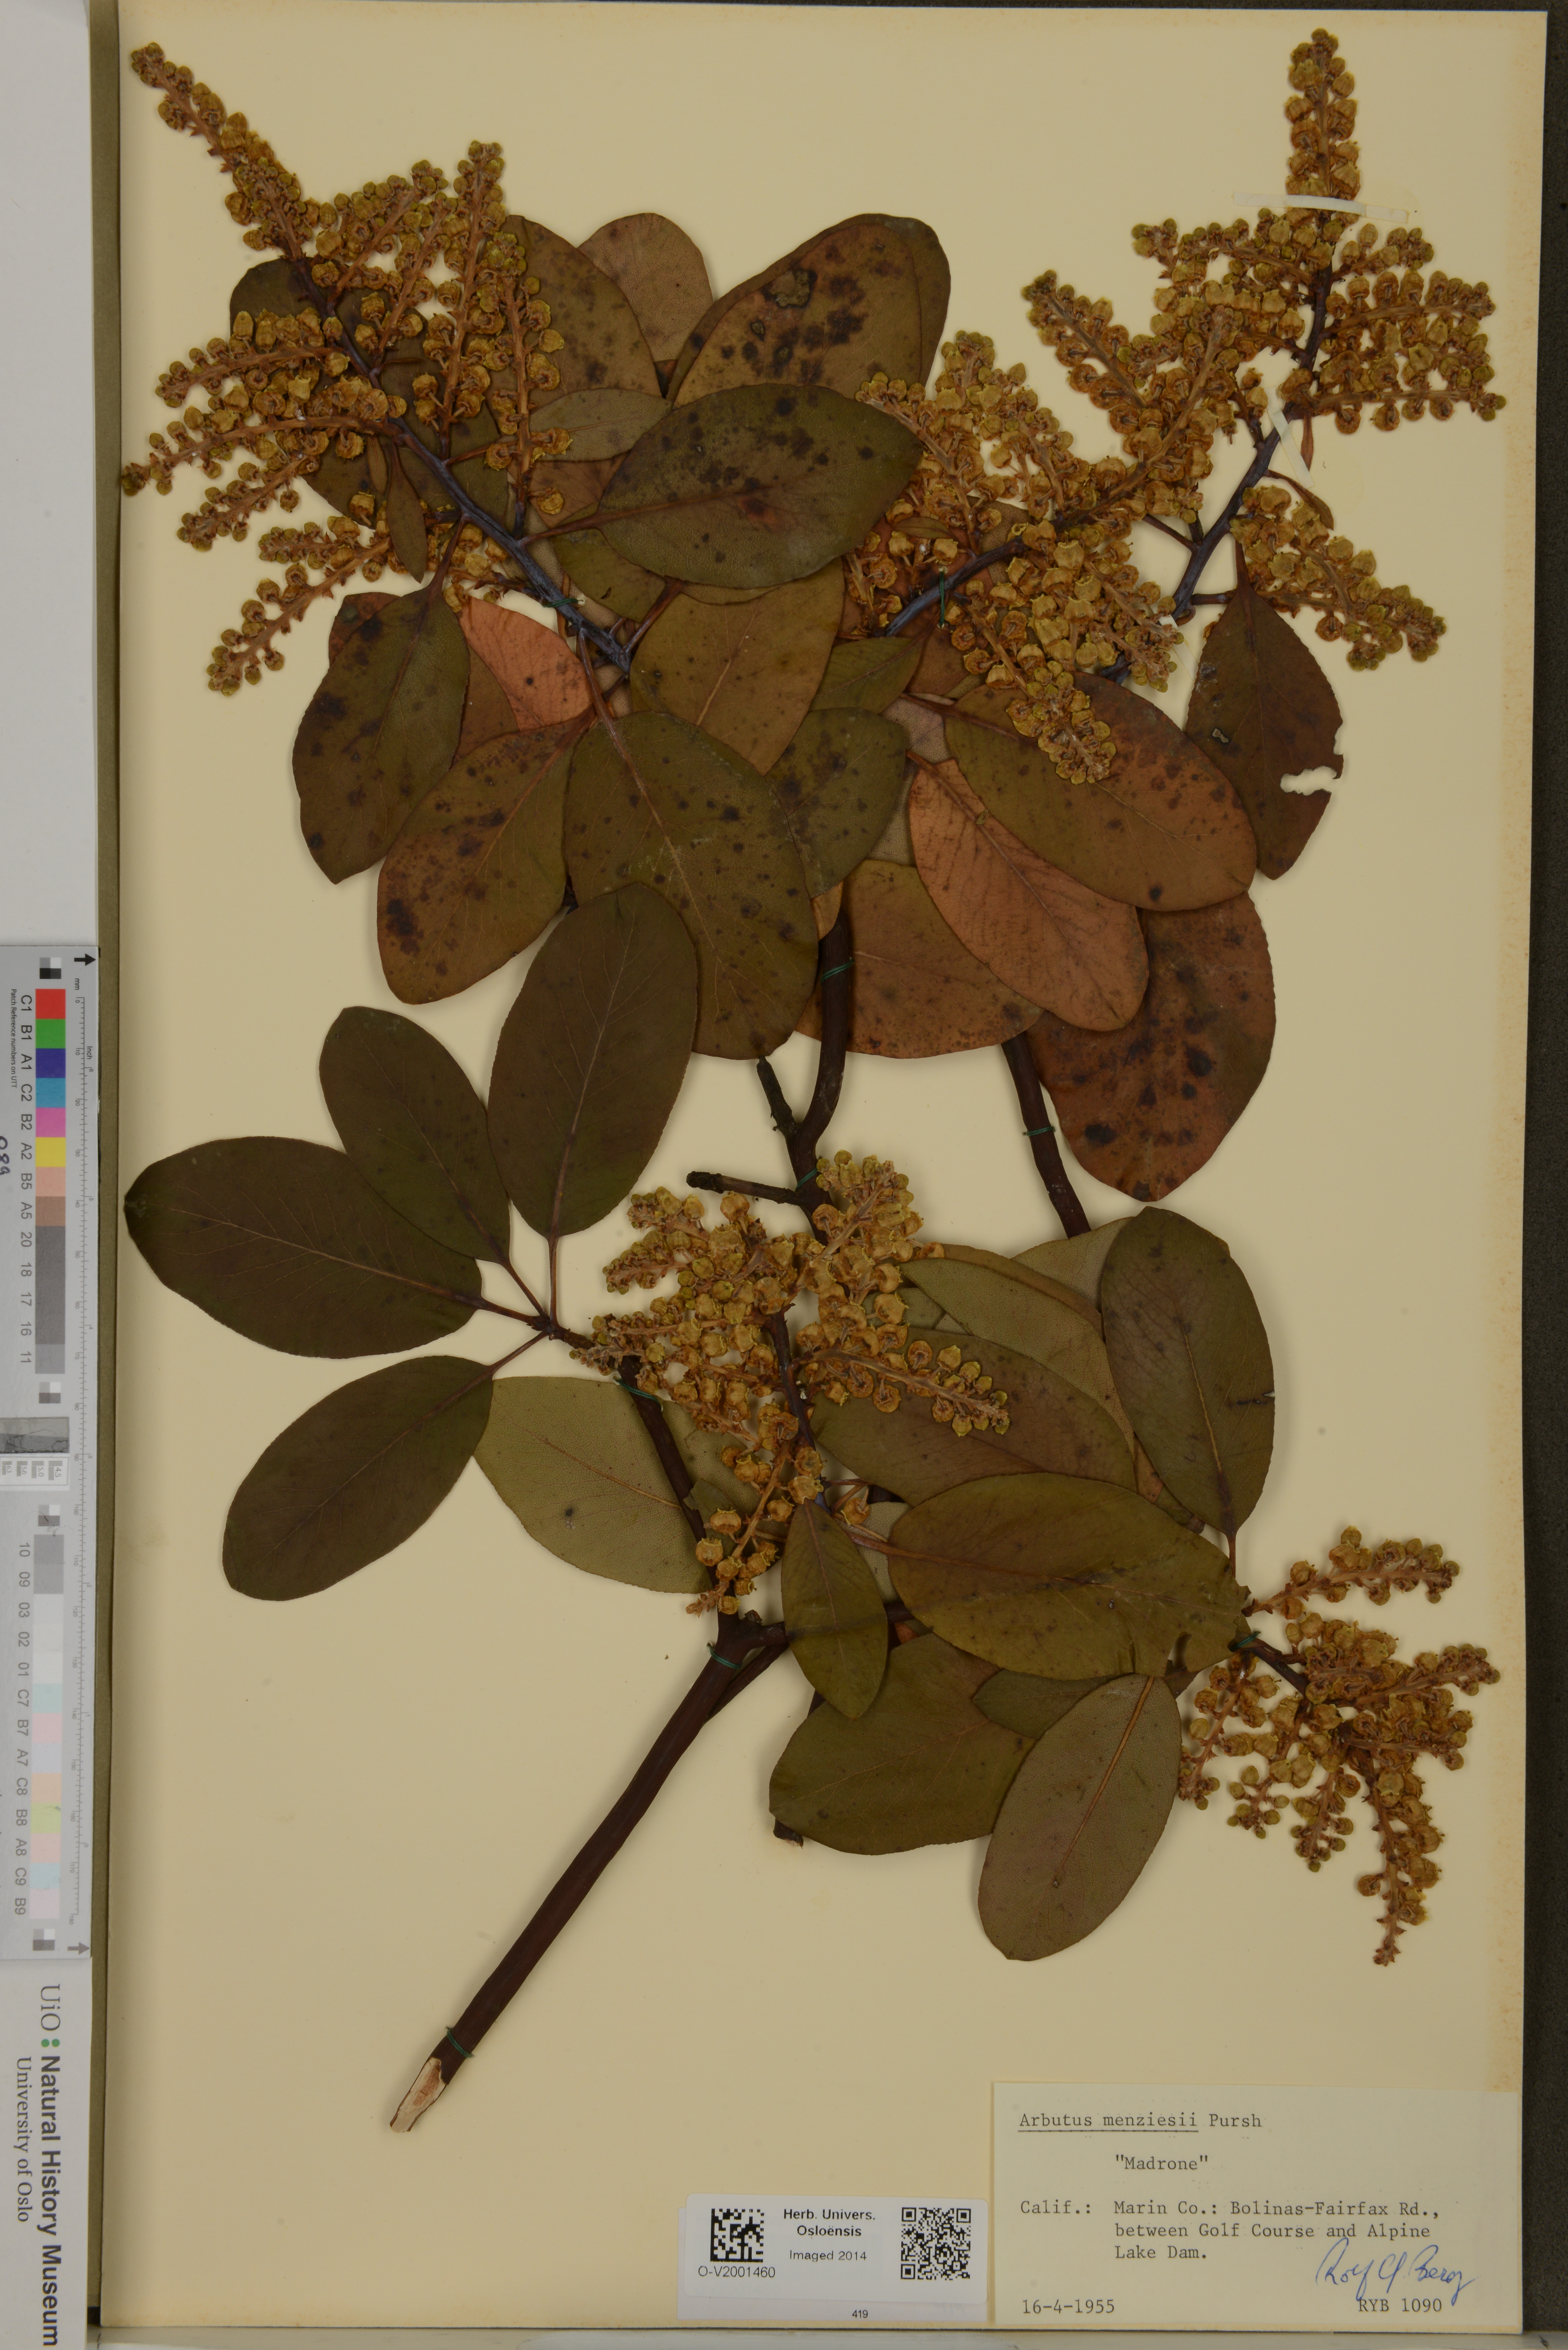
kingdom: Plantae
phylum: Tracheophyta
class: Magnoliopsida
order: Ericales
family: Ericaceae
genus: Arbutus
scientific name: Arbutus menziesii
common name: Pacific madrone
